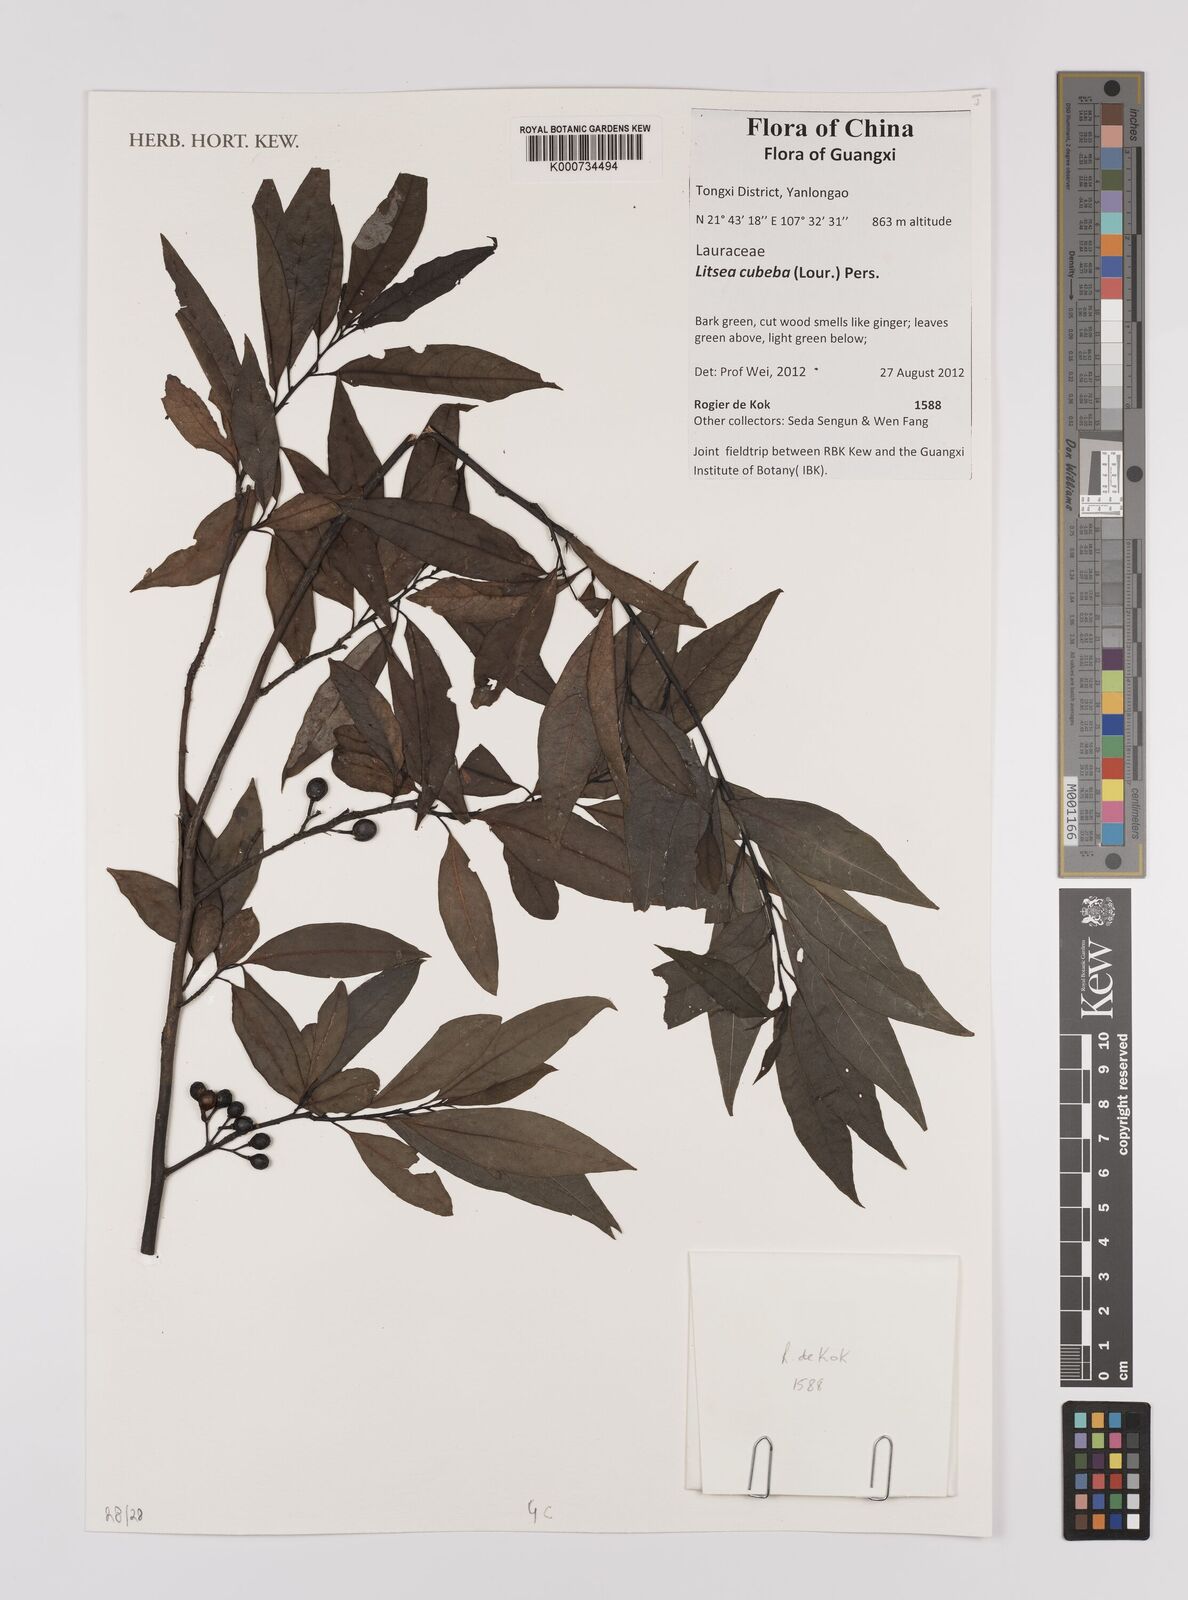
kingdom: Plantae
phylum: Tracheophyta
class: Magnoliopsida
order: Laurales
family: Lauraceae
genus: Litsea
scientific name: Litsea cubeba
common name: Mountain-pepper
